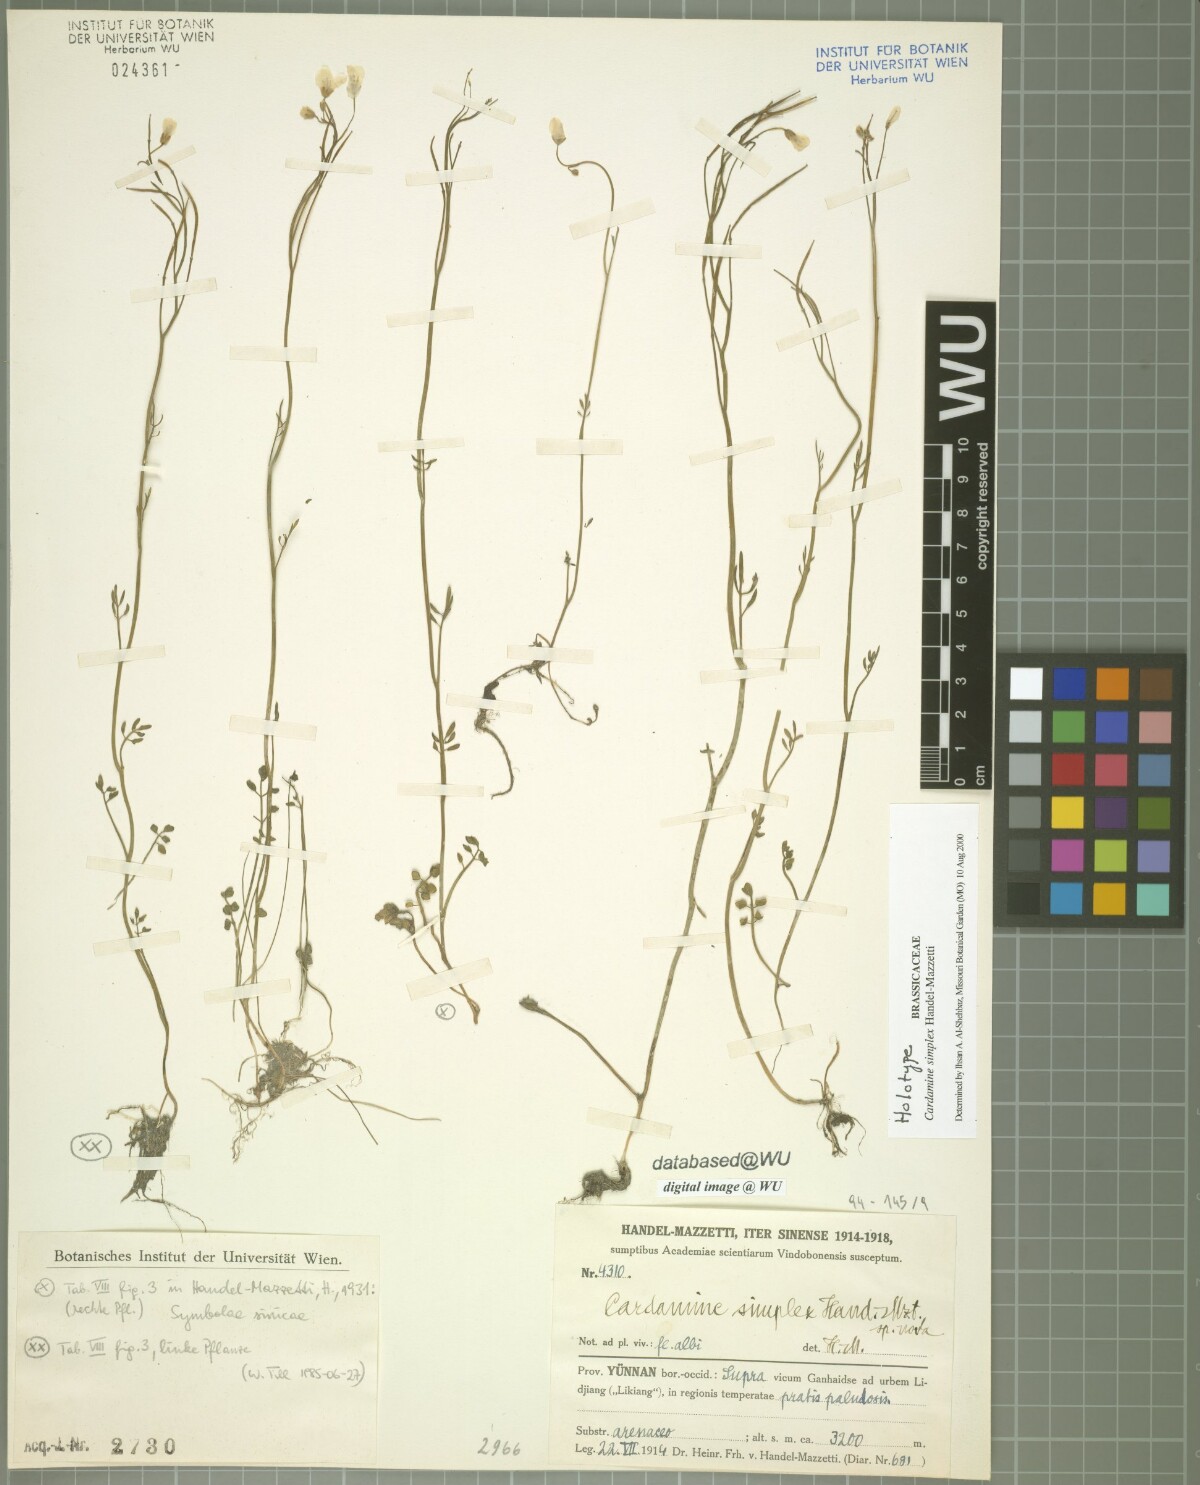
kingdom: Plantae
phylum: Tracheophyta
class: Magnoliopsida
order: Brassicales
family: Brassicaceae
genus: Cardamine
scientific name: Cardamine simplex
